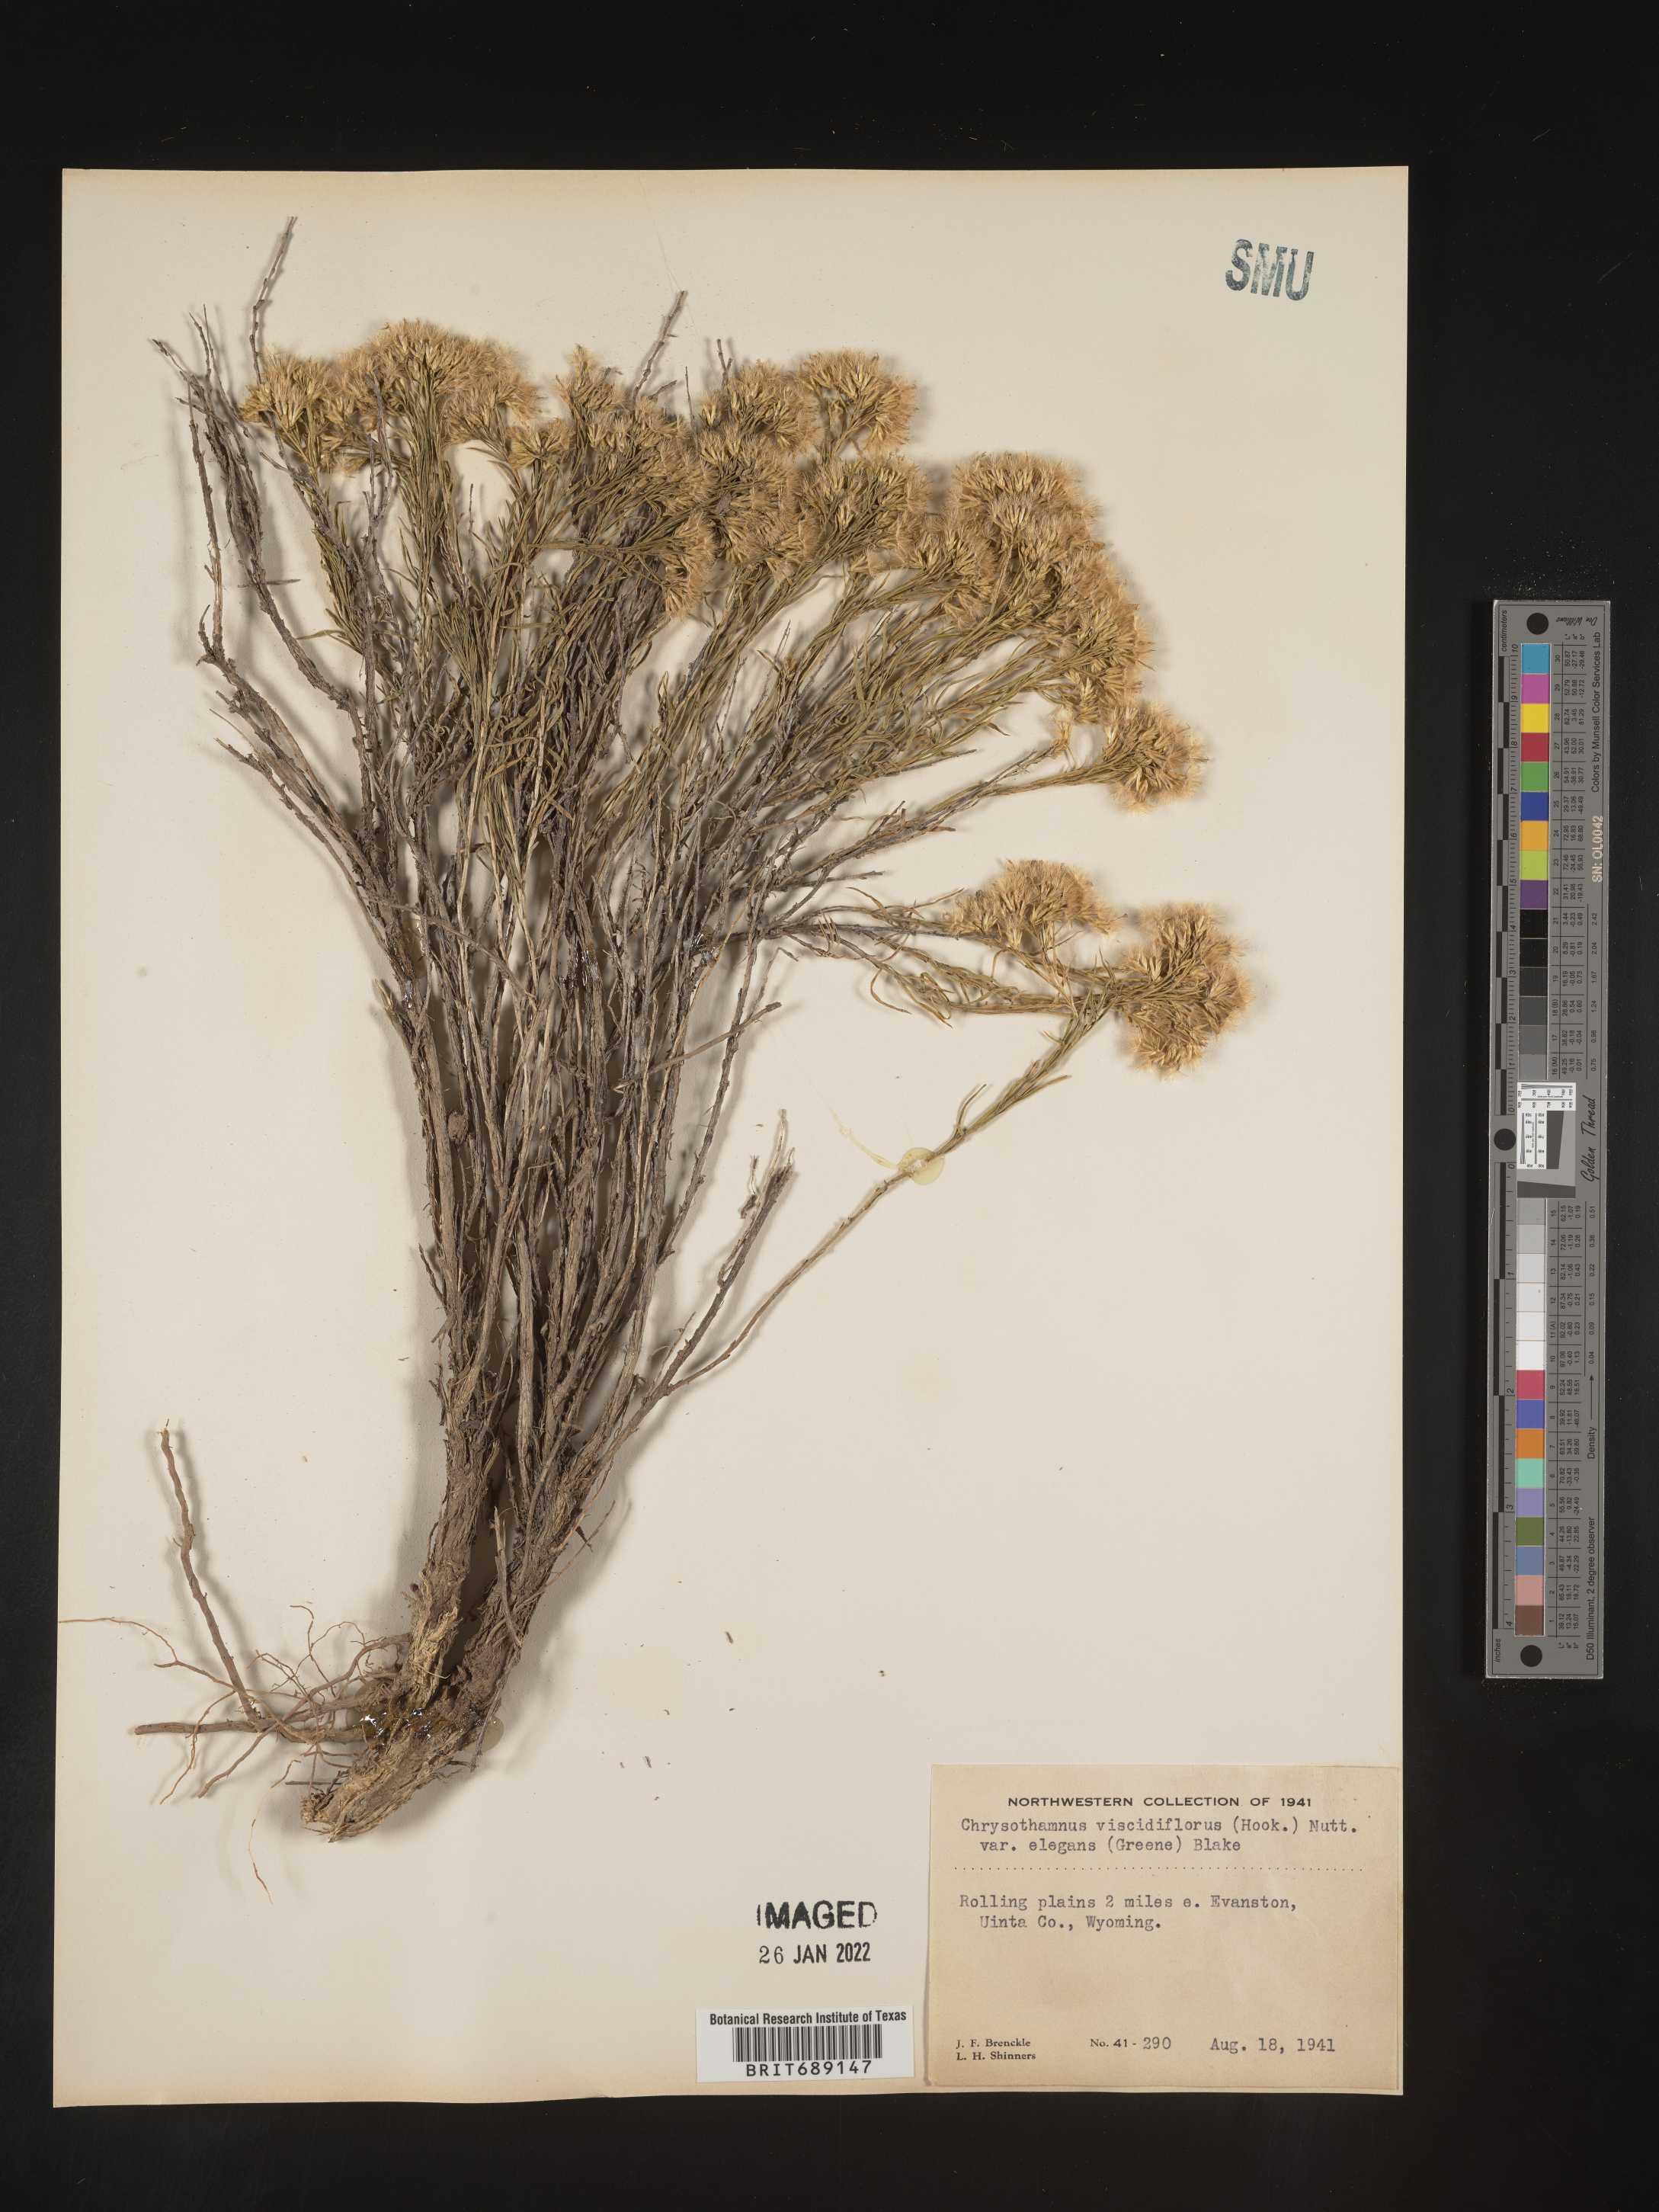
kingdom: Plantae
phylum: Tracheophyta
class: Magnoliopsida
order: Asterales
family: Asteraceae
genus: Chrysothamnus
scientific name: Chrysothamnus viscidiflorus
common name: Yellow rabbitbrush
